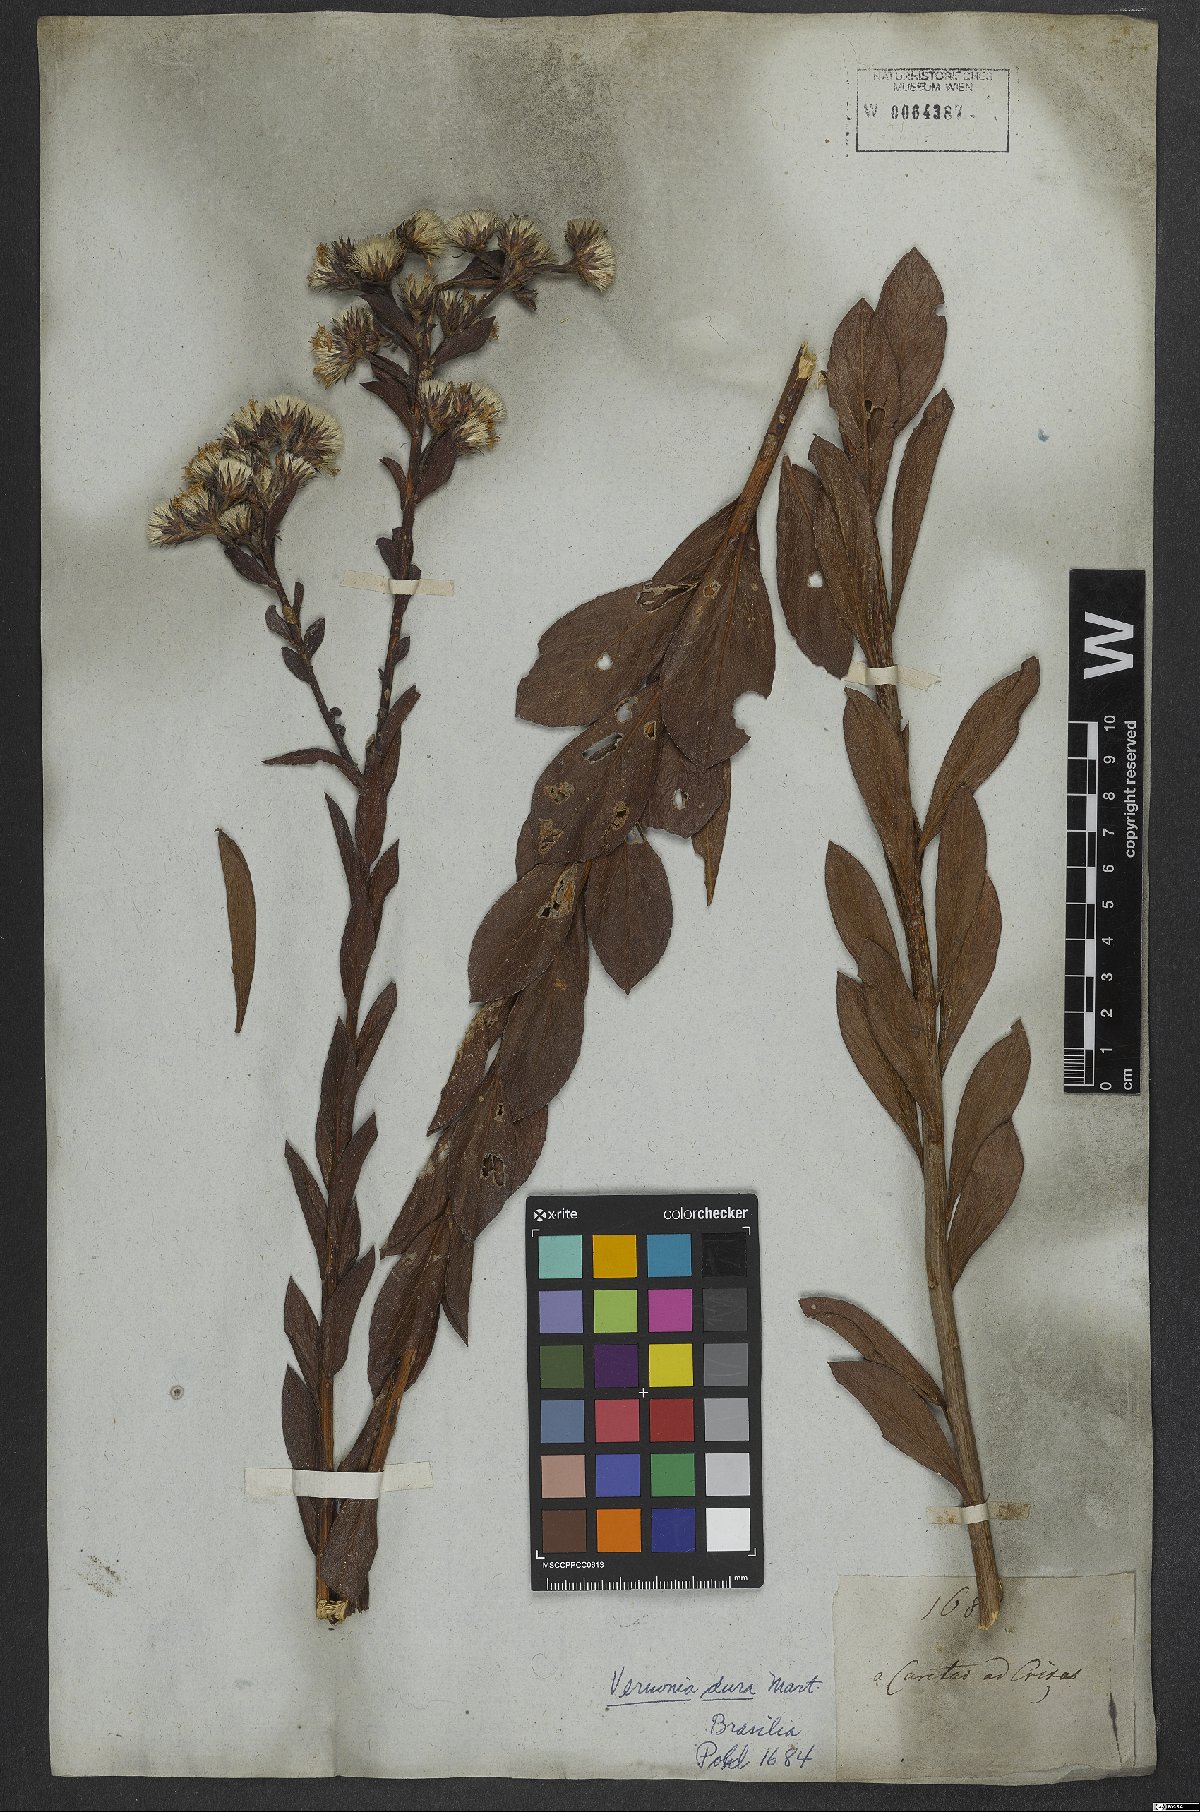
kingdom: Plantae
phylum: Tracheophyta
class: Magnoliopsida
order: Asterales
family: Asteraceae
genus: Lessingianthus
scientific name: Lessingianthus durus
